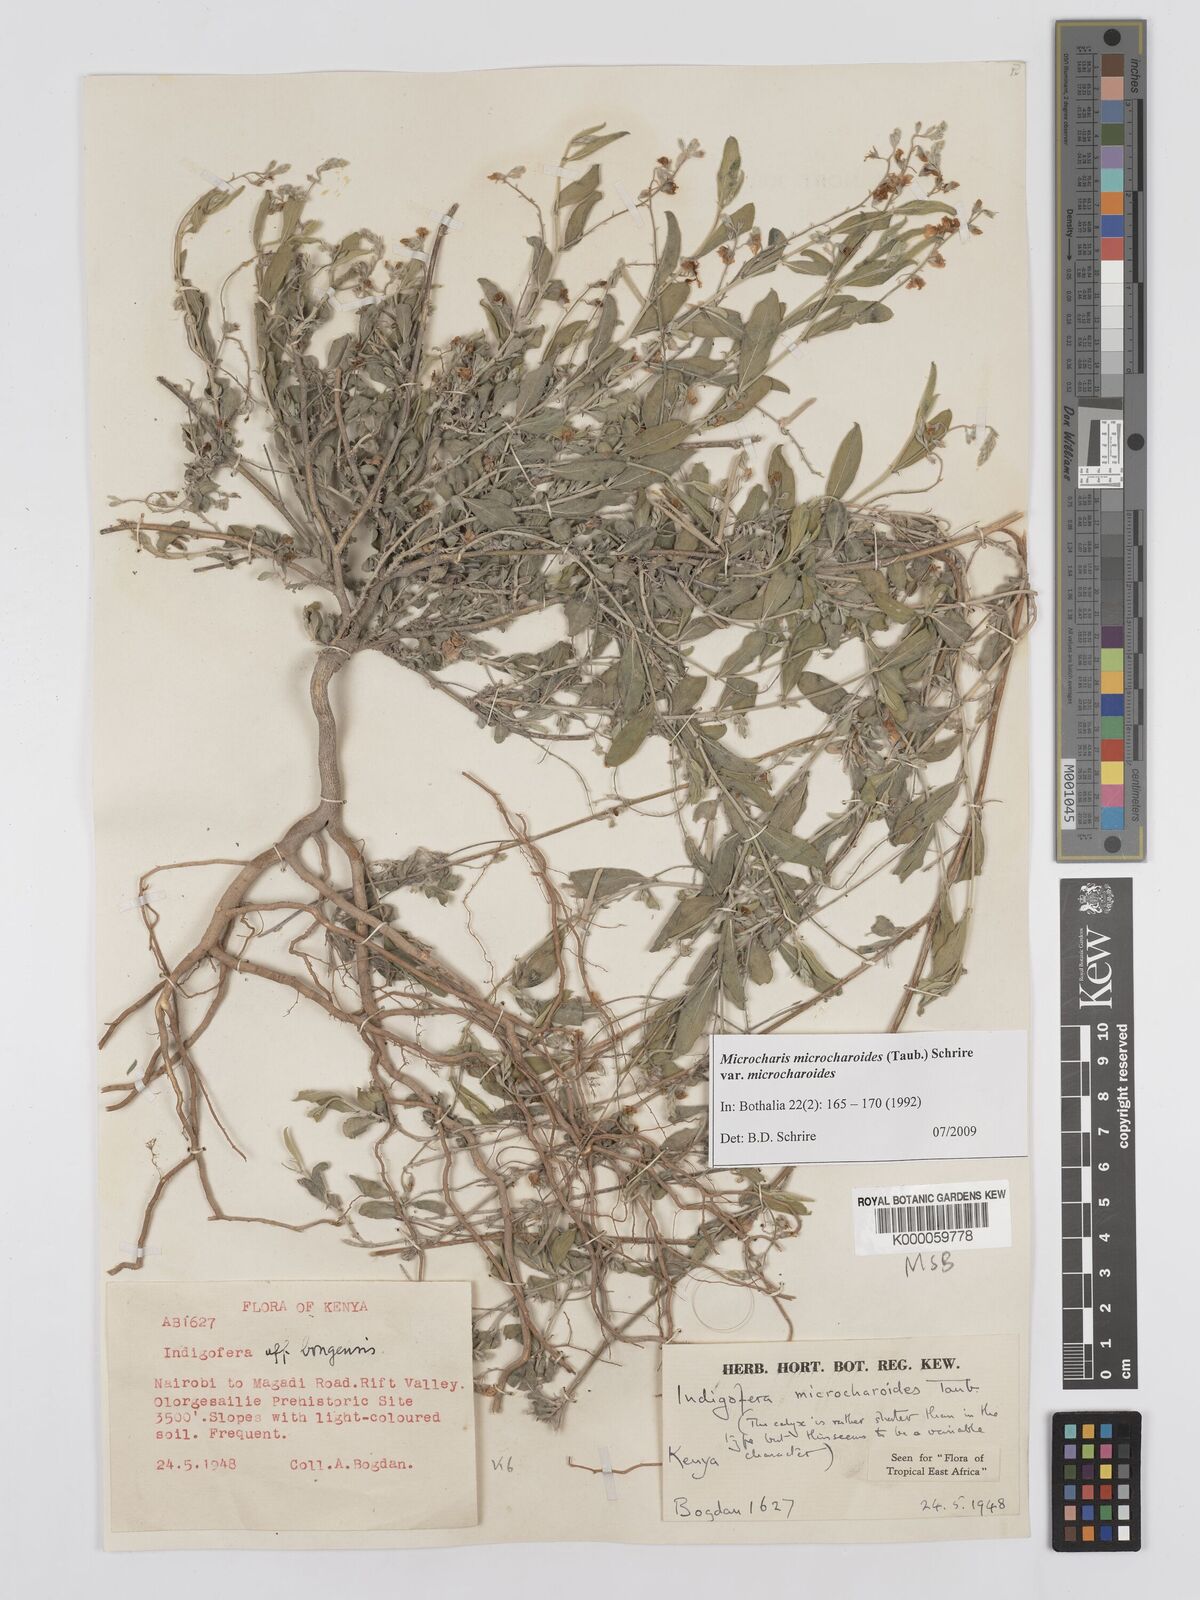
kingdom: Plantae
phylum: Tracheophyta
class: Magnoliopsida
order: Fabales
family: Fabaceae
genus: Microcharis
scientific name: Microcharis microcharoides
